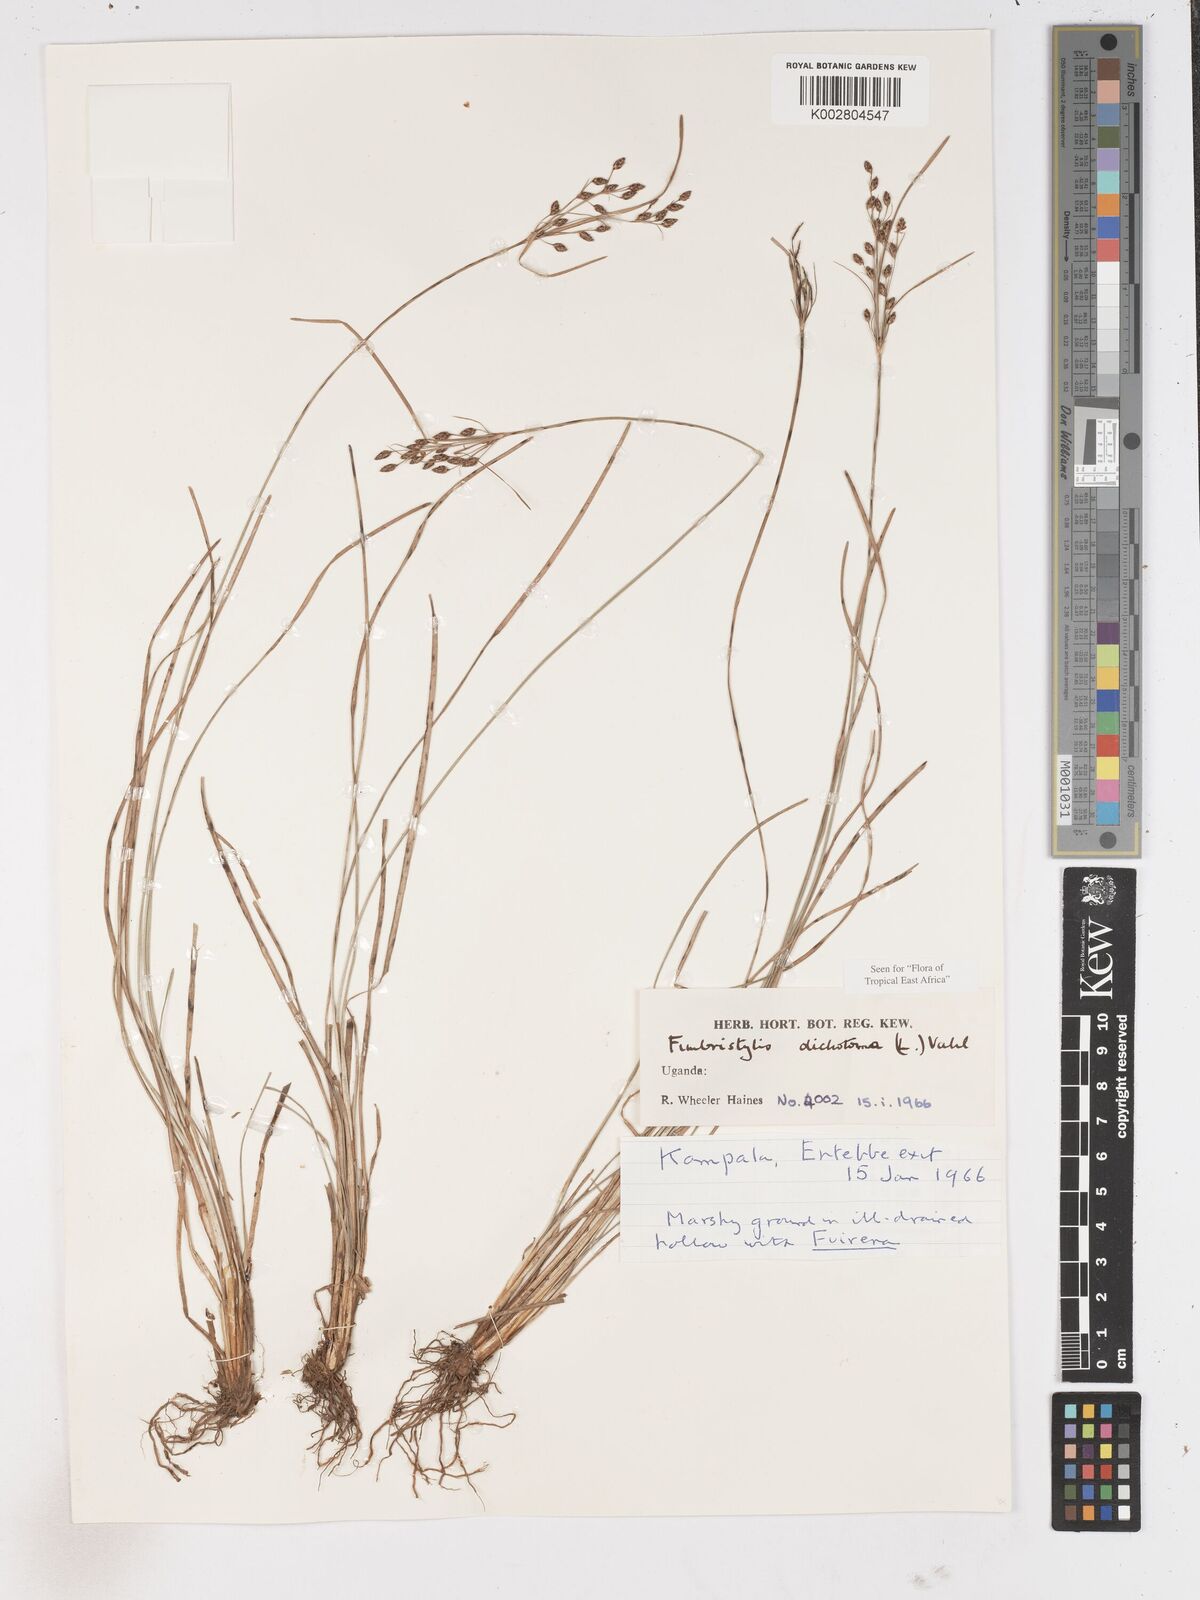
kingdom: Plantae
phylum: Tracheophyta
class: Liliopsida
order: Poales
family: Cyperaceae
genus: Fimbristylis
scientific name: Fimbristylis dichotoma
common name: Forked fimbry
